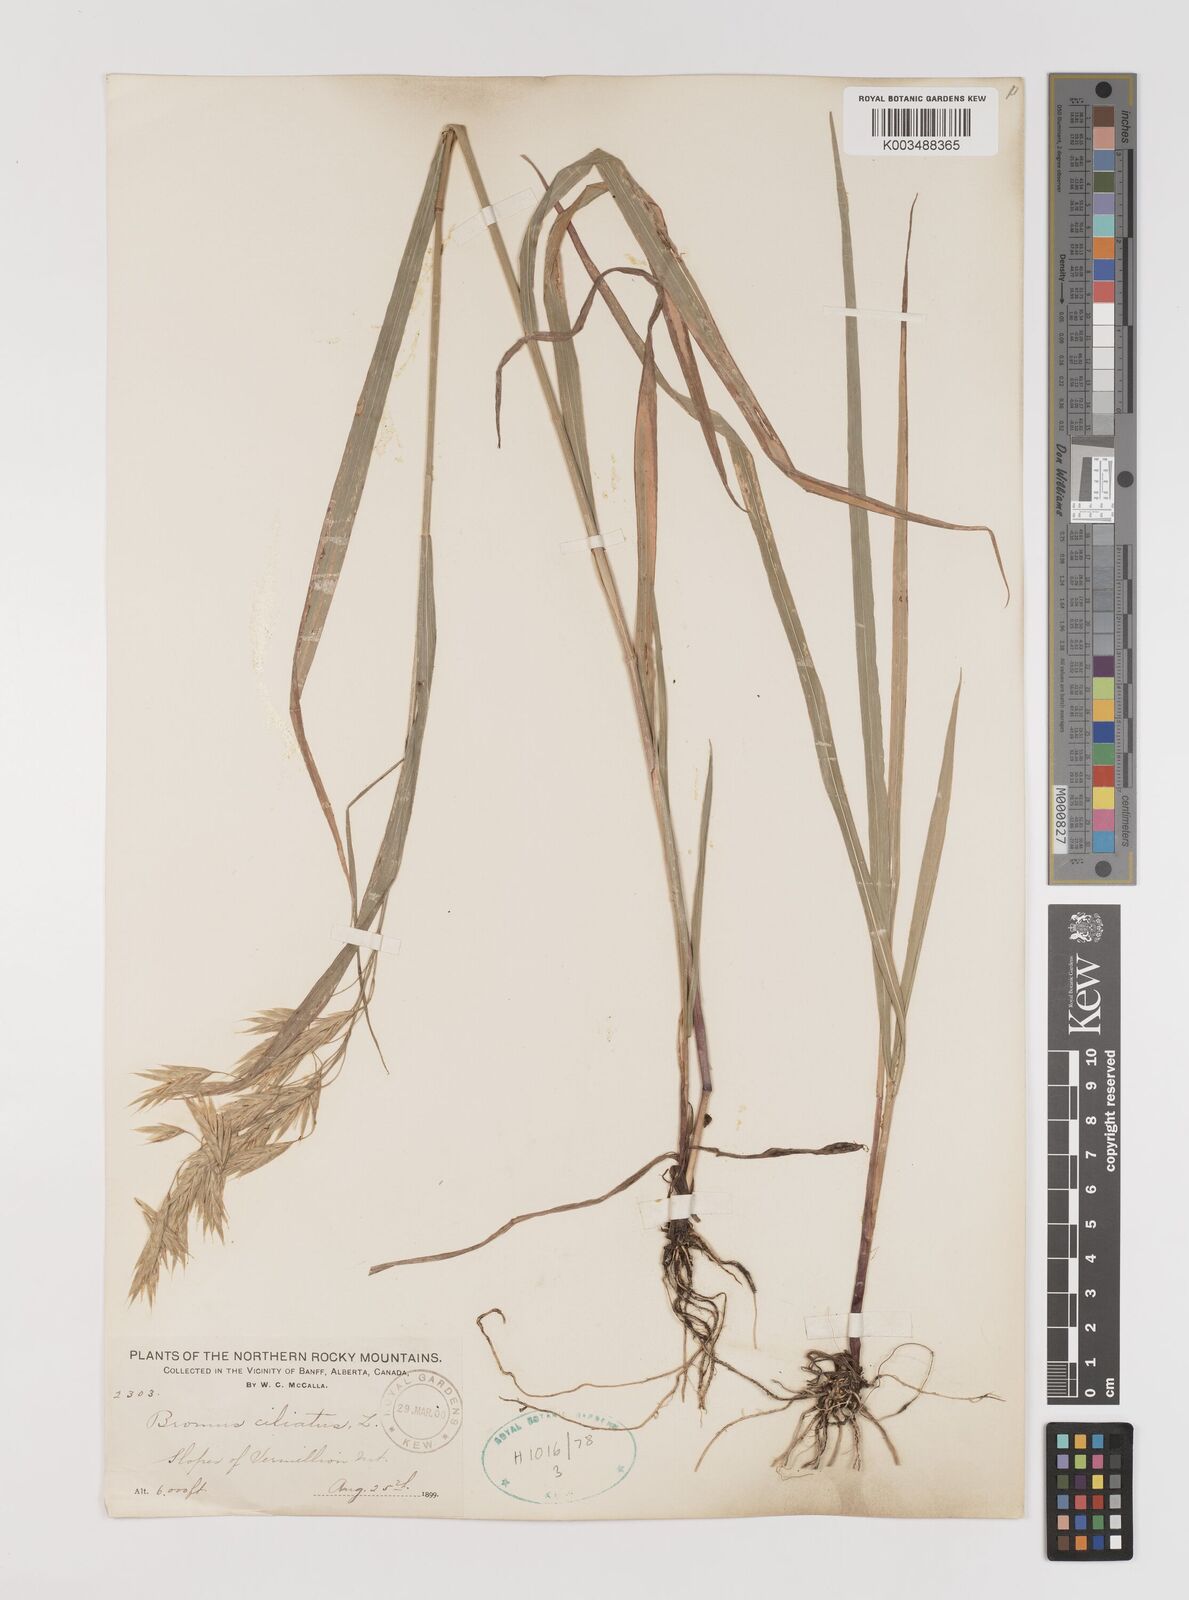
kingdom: Plantae
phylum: Tracheophyta
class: Liliopsida
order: Poales
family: Poaceae
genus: Bromus
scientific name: Bromus ciliatus
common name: Fringe brome
